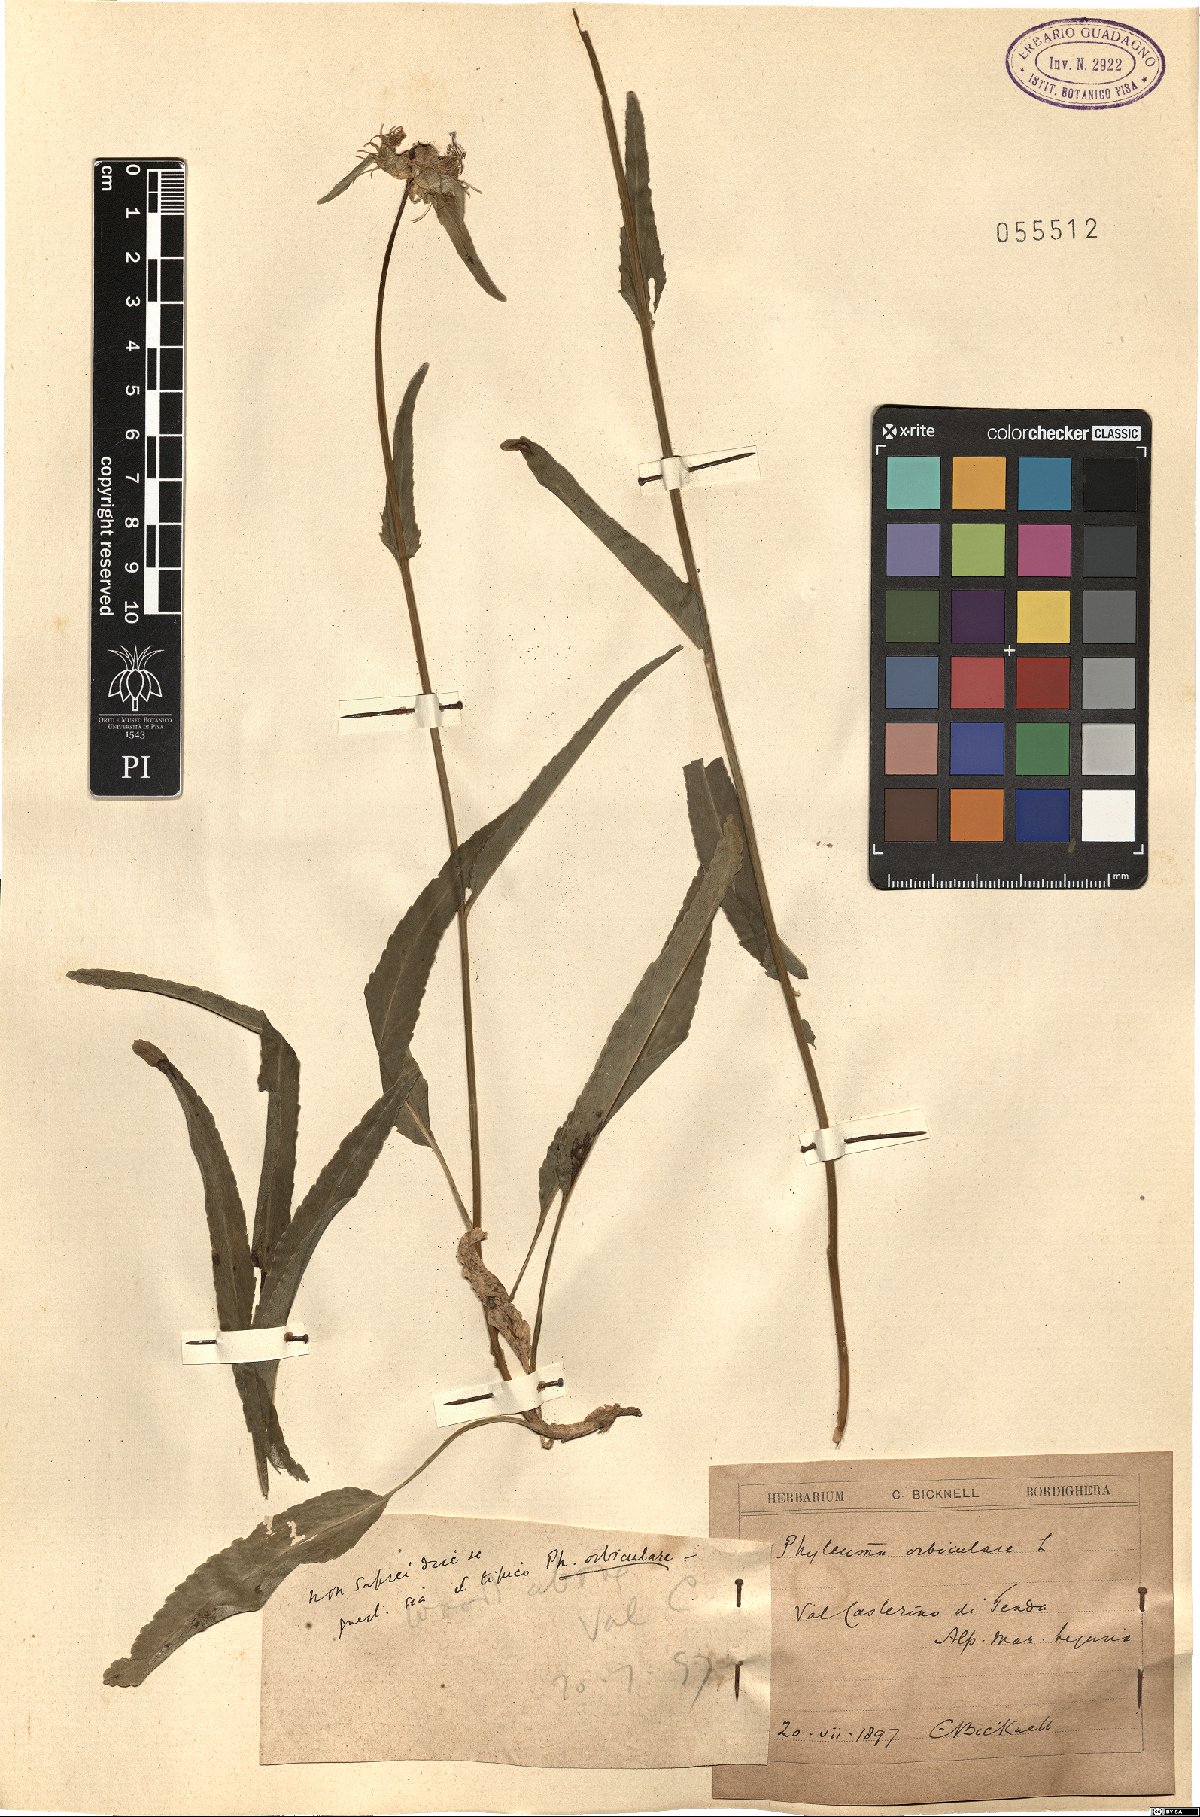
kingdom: Plantae
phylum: Tracheophyta
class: Magnoliopsida
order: Asterales
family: Campanulaceae
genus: Phyteuma
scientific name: Phyteuma orbiculare
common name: Round-headed rampion
